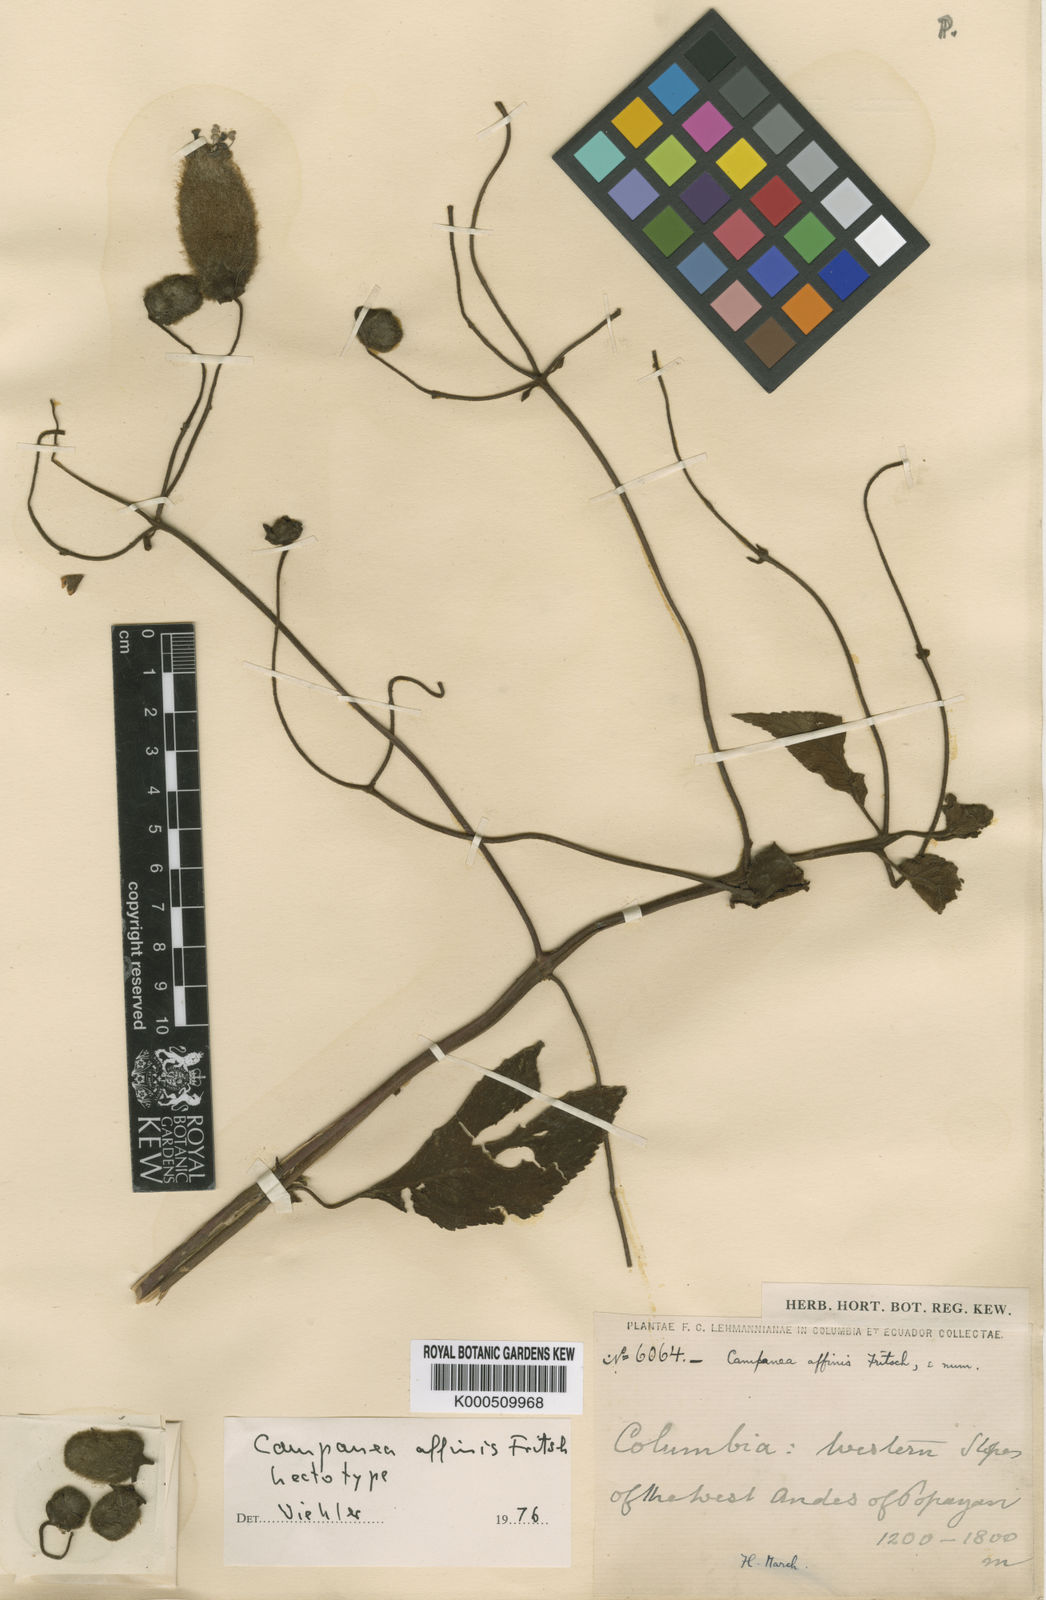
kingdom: Plantae
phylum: Tracheophyta
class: Magnoliopsida
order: Lamiales
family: Gesneriaceae
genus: Kohleria
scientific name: Kohleria
